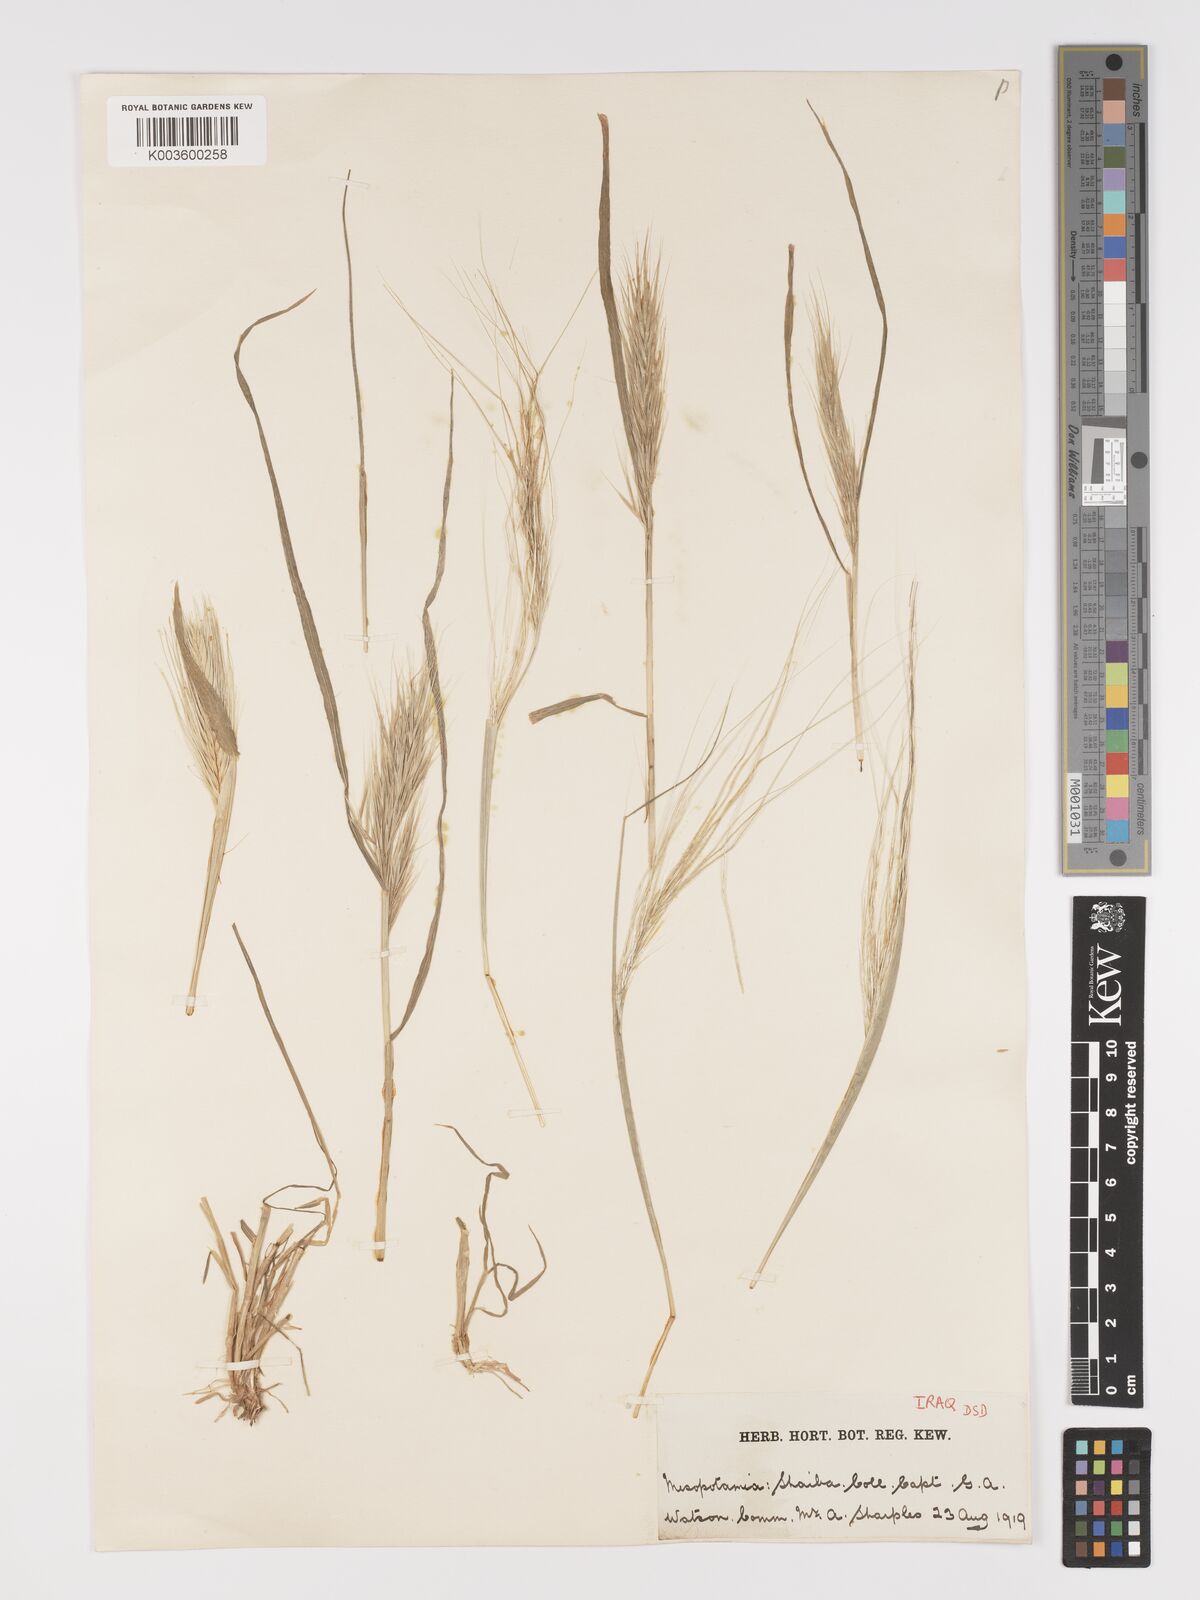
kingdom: Plantae
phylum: Tracheophyta
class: Liliopsida
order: Poales
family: Poaceae
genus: Stipellula
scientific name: Stipellula capensis
